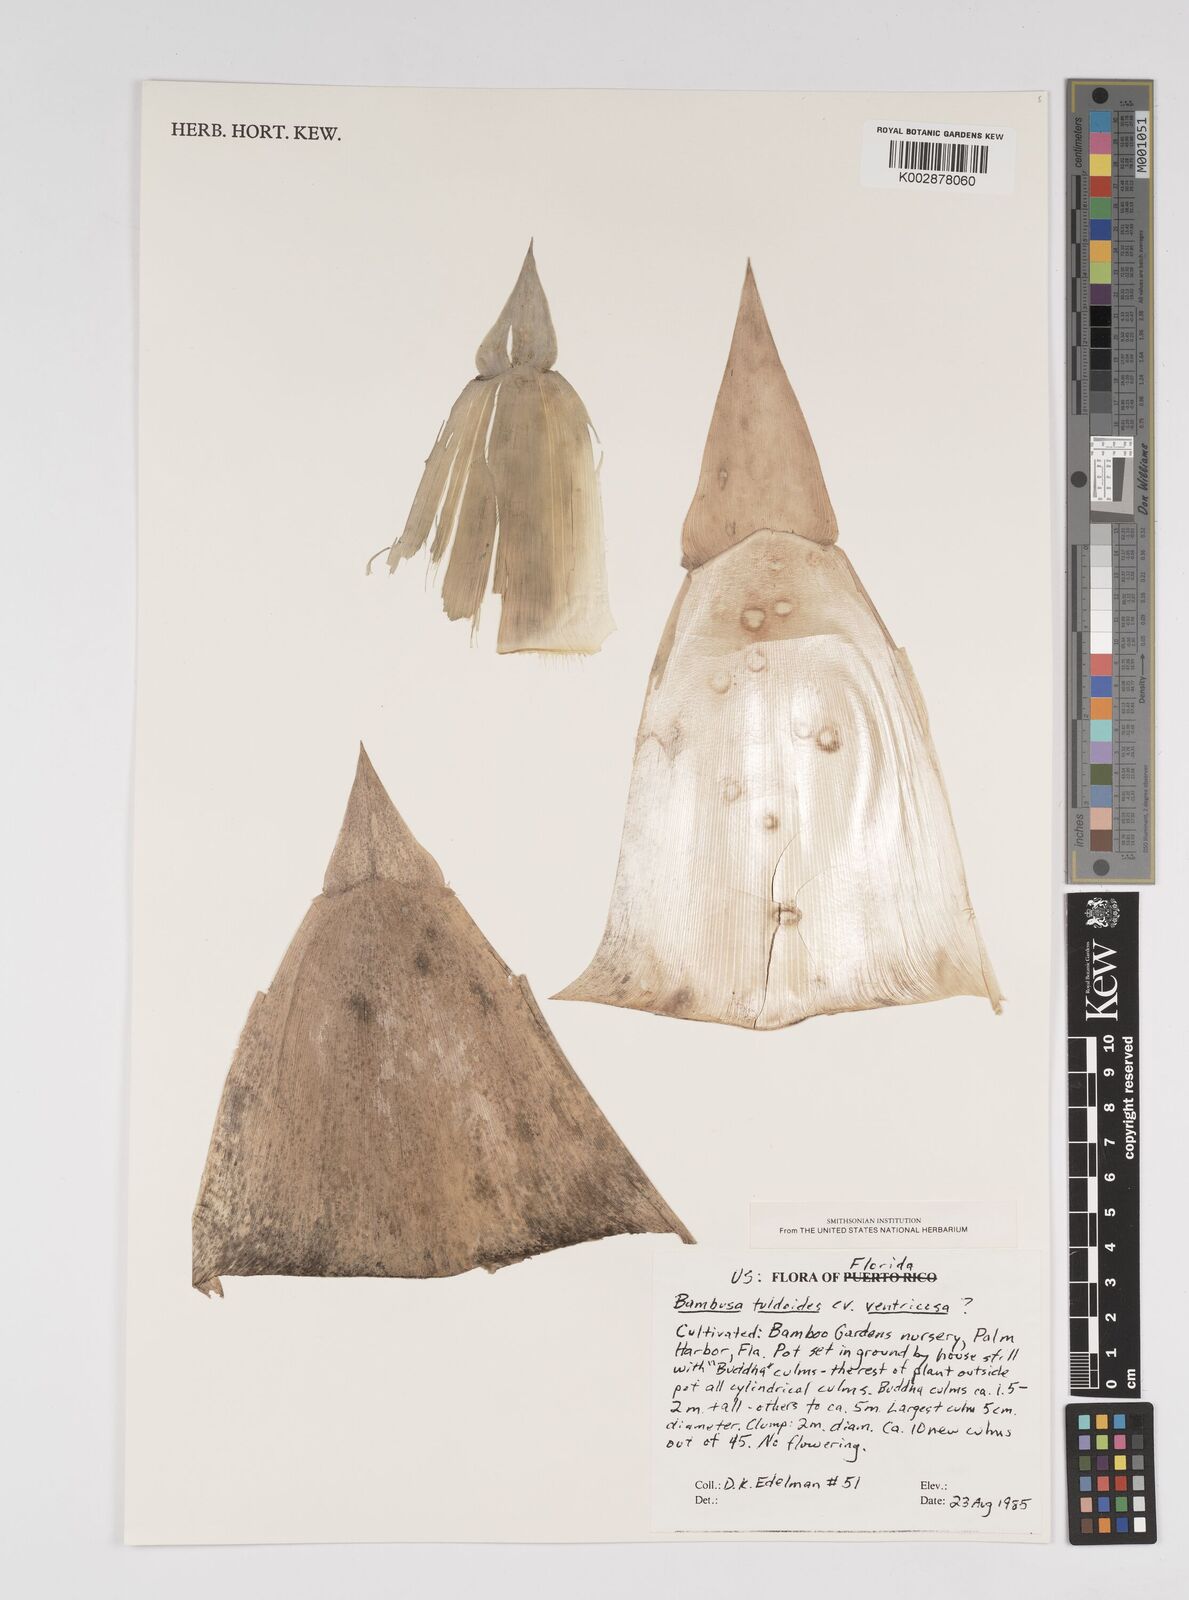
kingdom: Plantae
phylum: Tracheophyta
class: Liliopsida
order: Poales
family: Poaceae
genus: Bambusa
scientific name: Bambusa tuldoides
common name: Verdant bamboo
